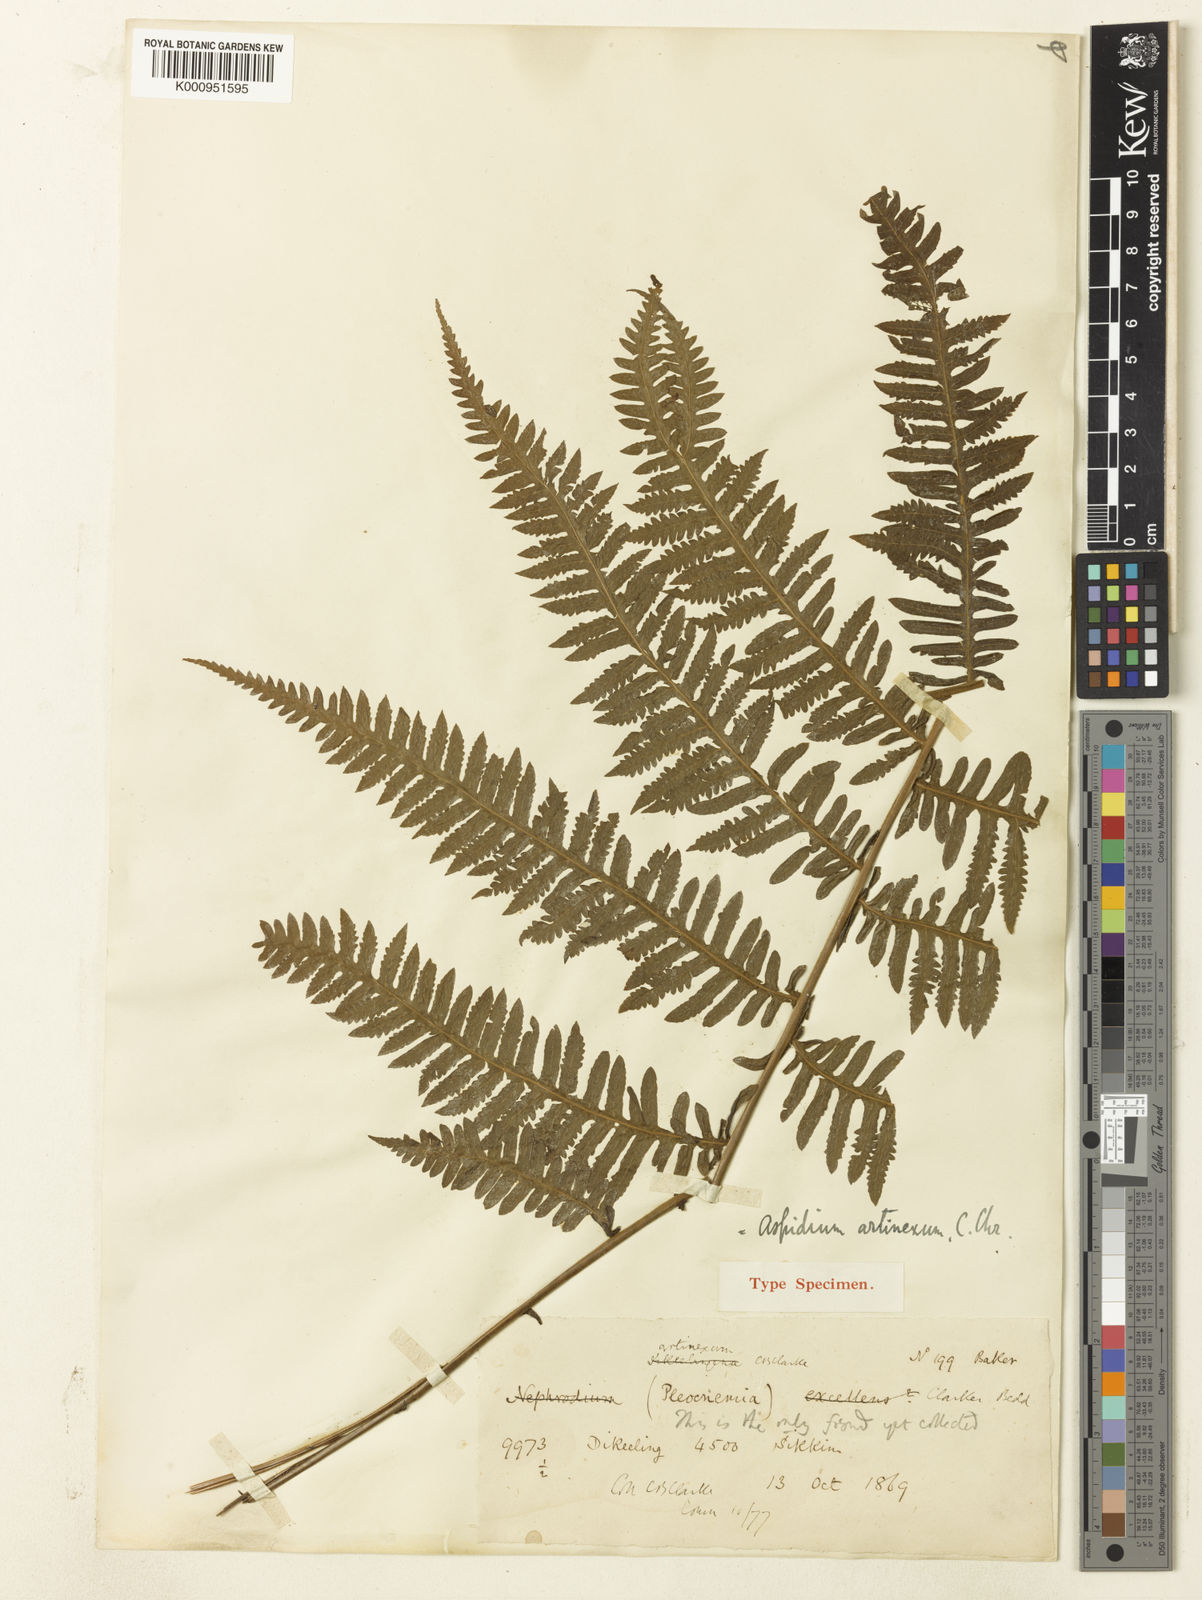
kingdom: Plantae
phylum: Tracheophyta
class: Polypodiopsida
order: Polypodiales
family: Thelypteridaceae
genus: Christella
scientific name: Christella clarkei
